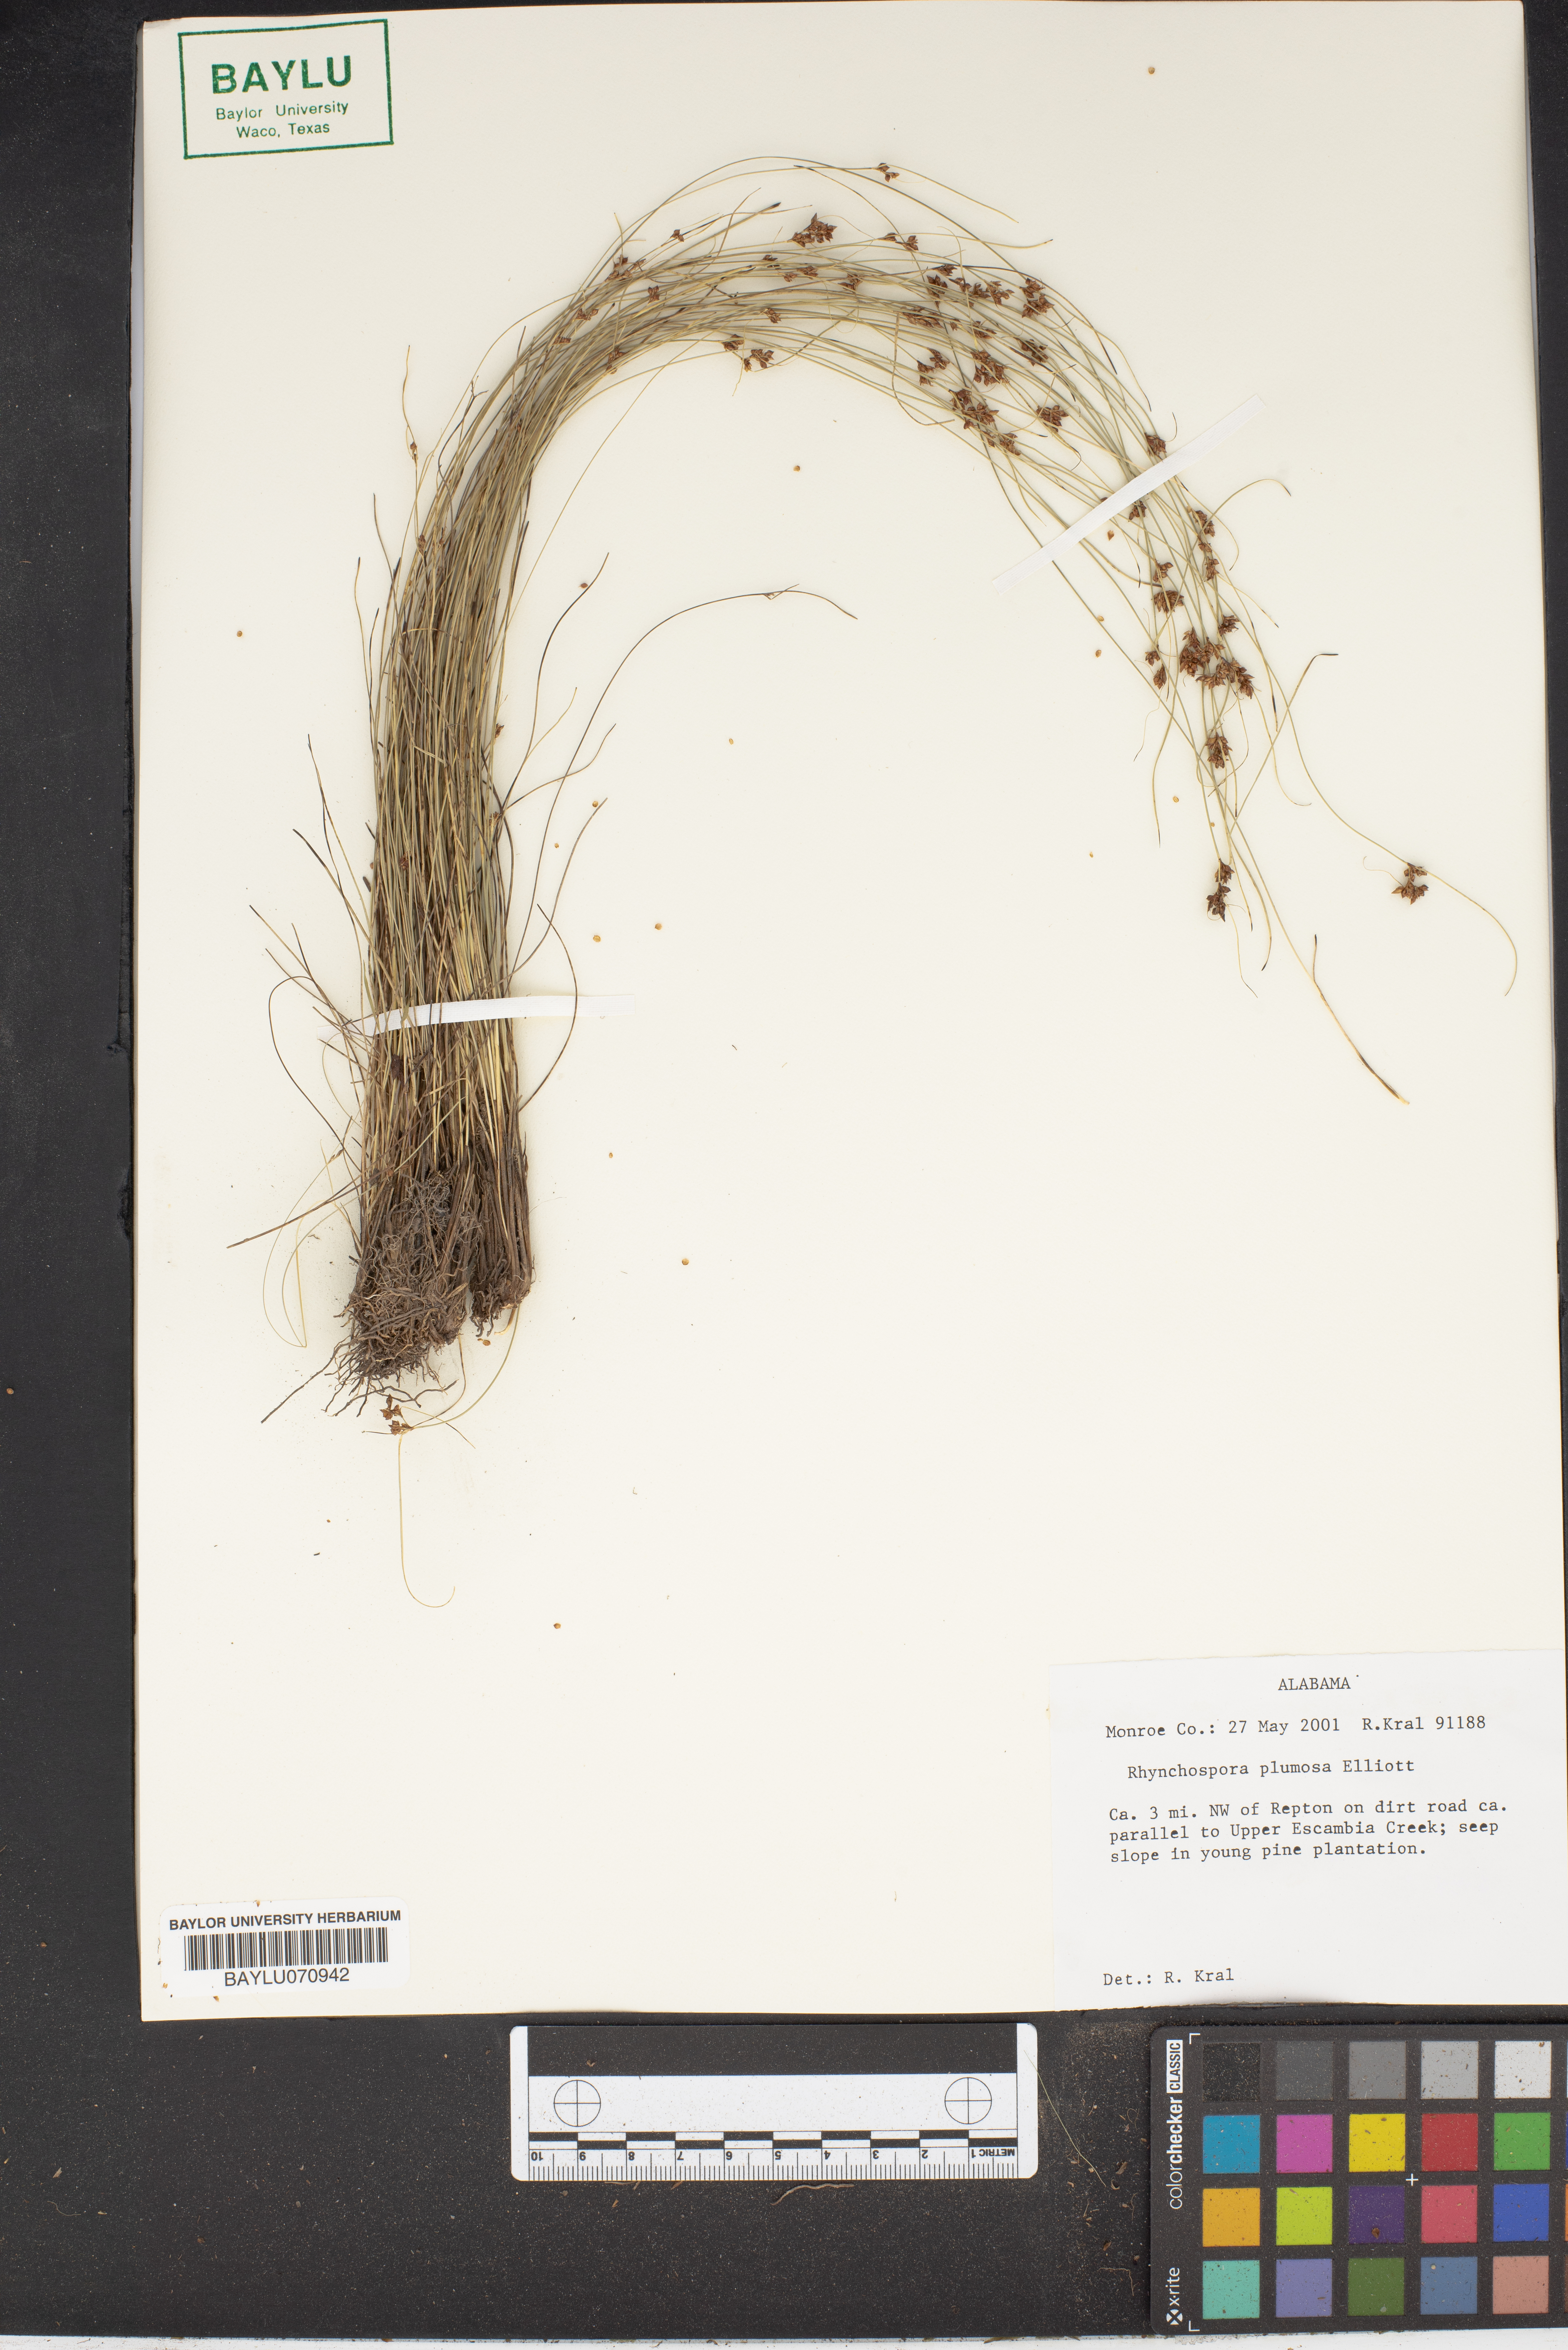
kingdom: Plantae
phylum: Tracheophyta
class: Liliopsida
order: Poales
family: Cyperaceae
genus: Rhynchospora
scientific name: Rhynchospora plumosa
